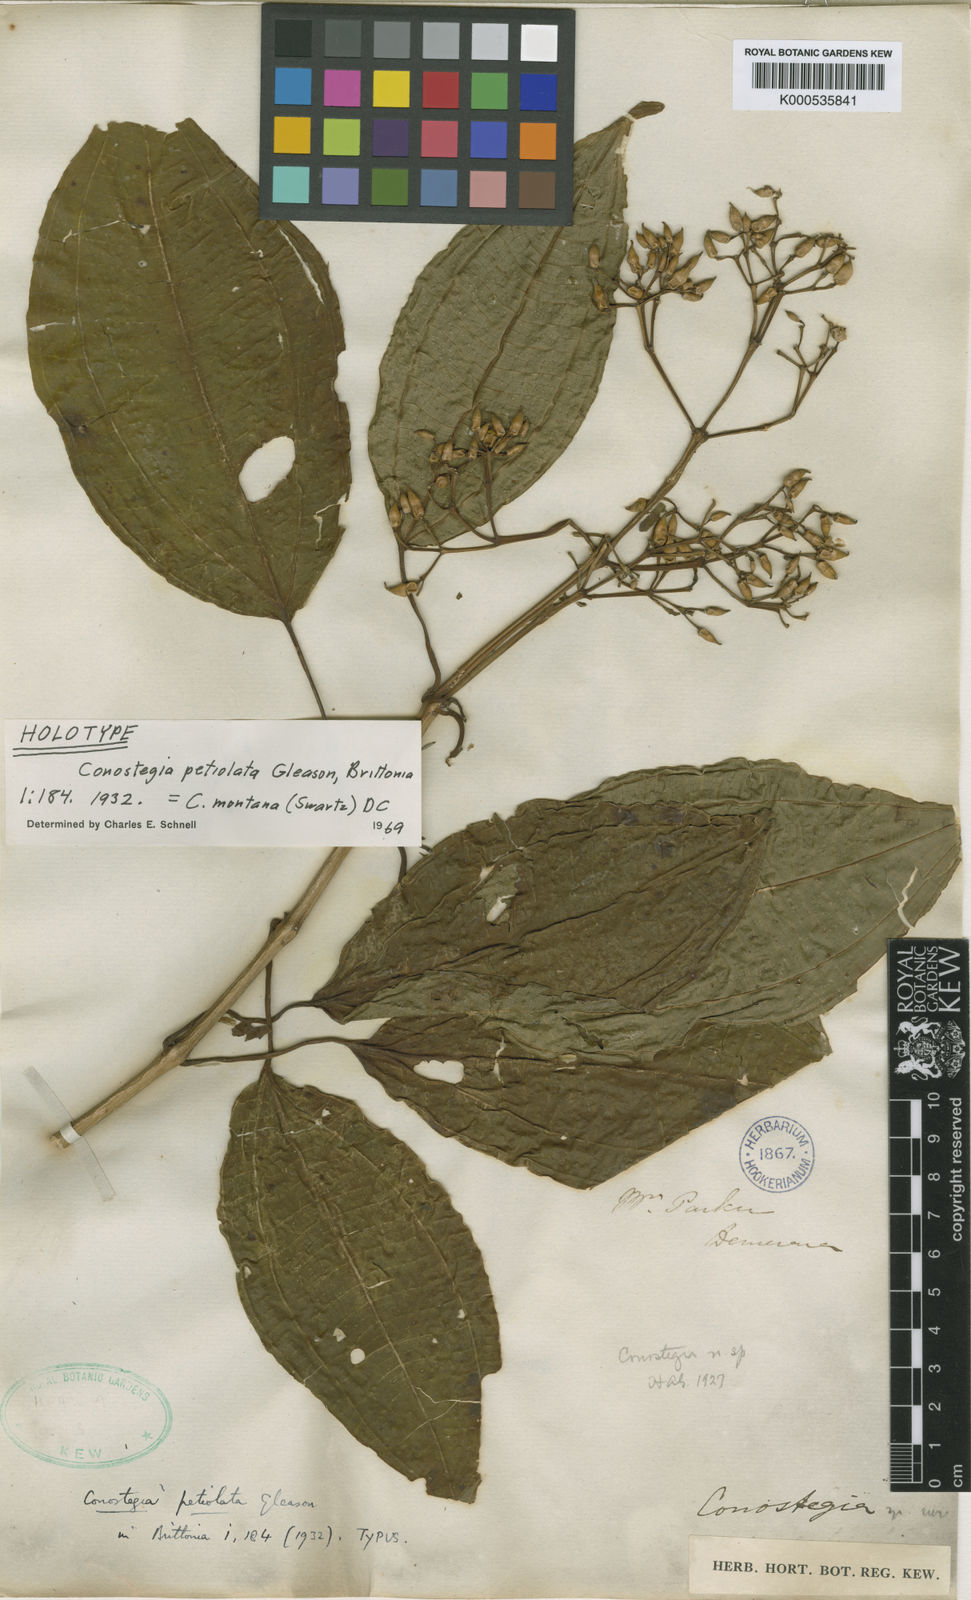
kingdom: Plantae
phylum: Tracheophyta
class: Magnoliopsida
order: Myrtales
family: Melastomataceae
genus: Miconia
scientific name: Miconia cooperi
